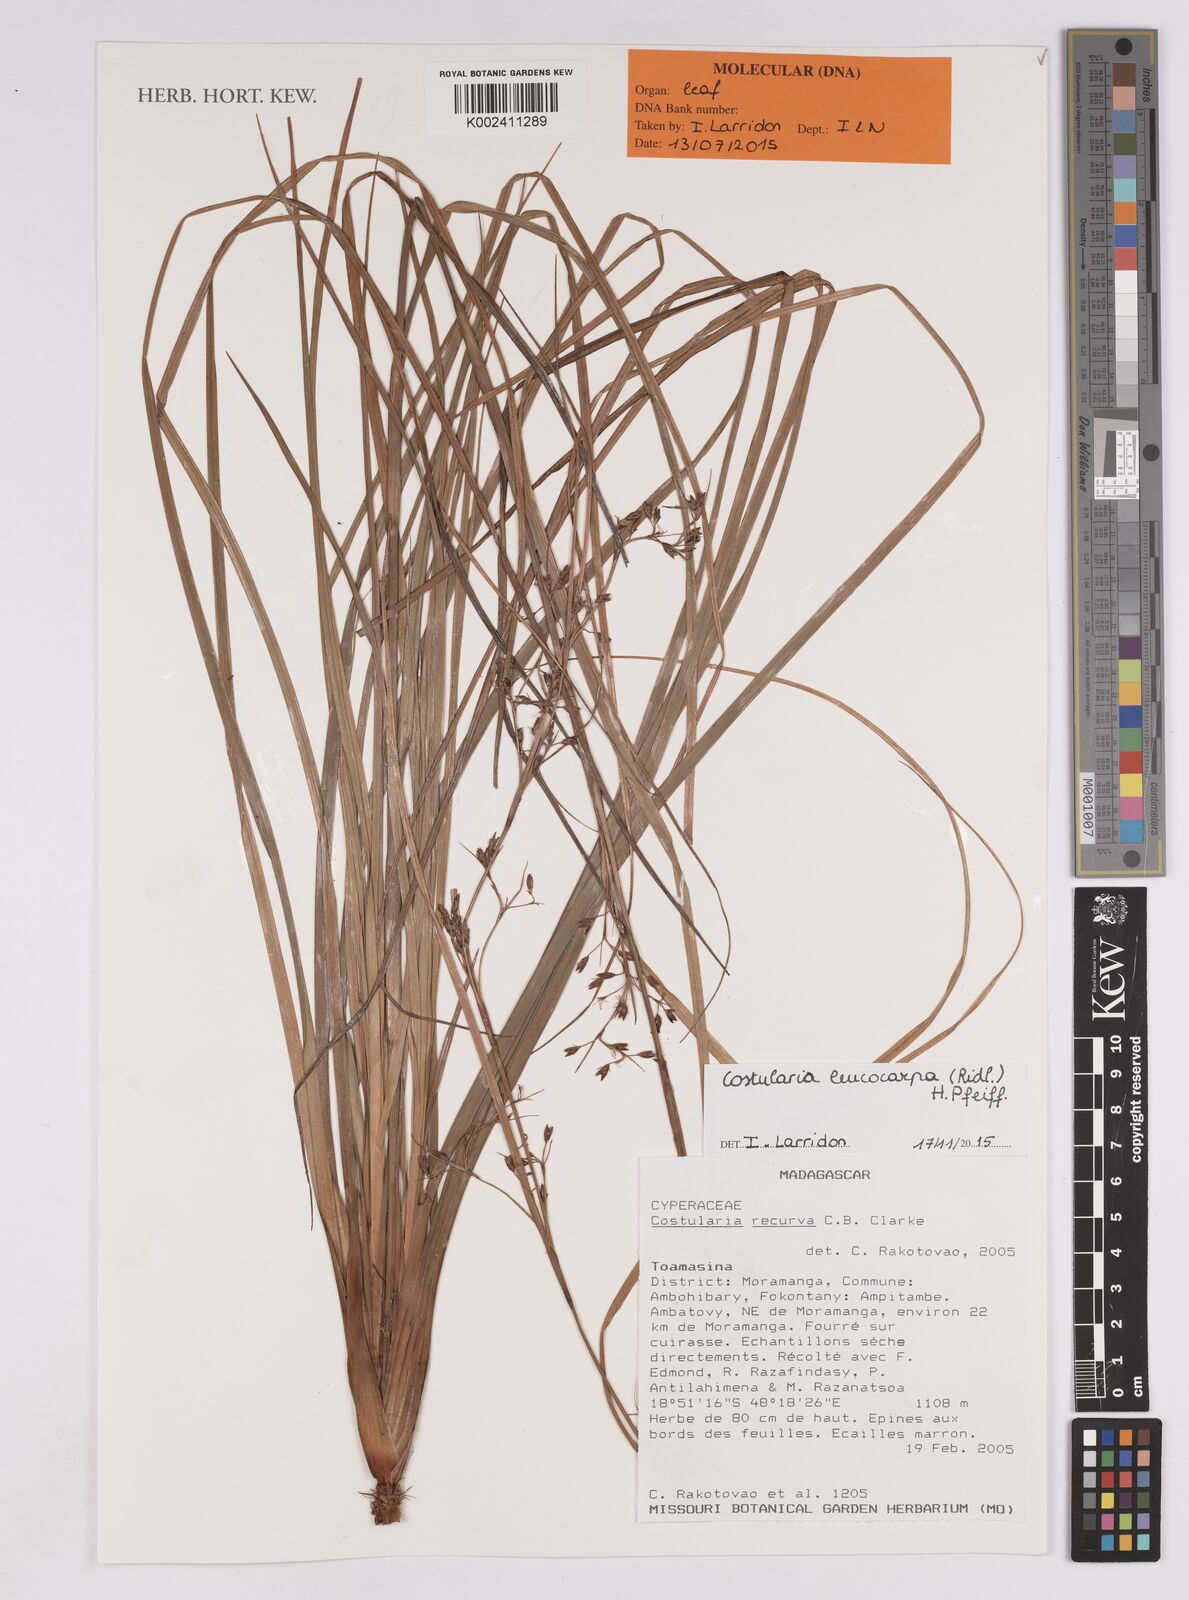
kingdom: Plantae
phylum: Tracheophyta
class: Liliopsida
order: Poales
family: Cyperaceae
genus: Costularia
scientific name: Costularia leucocarpa
